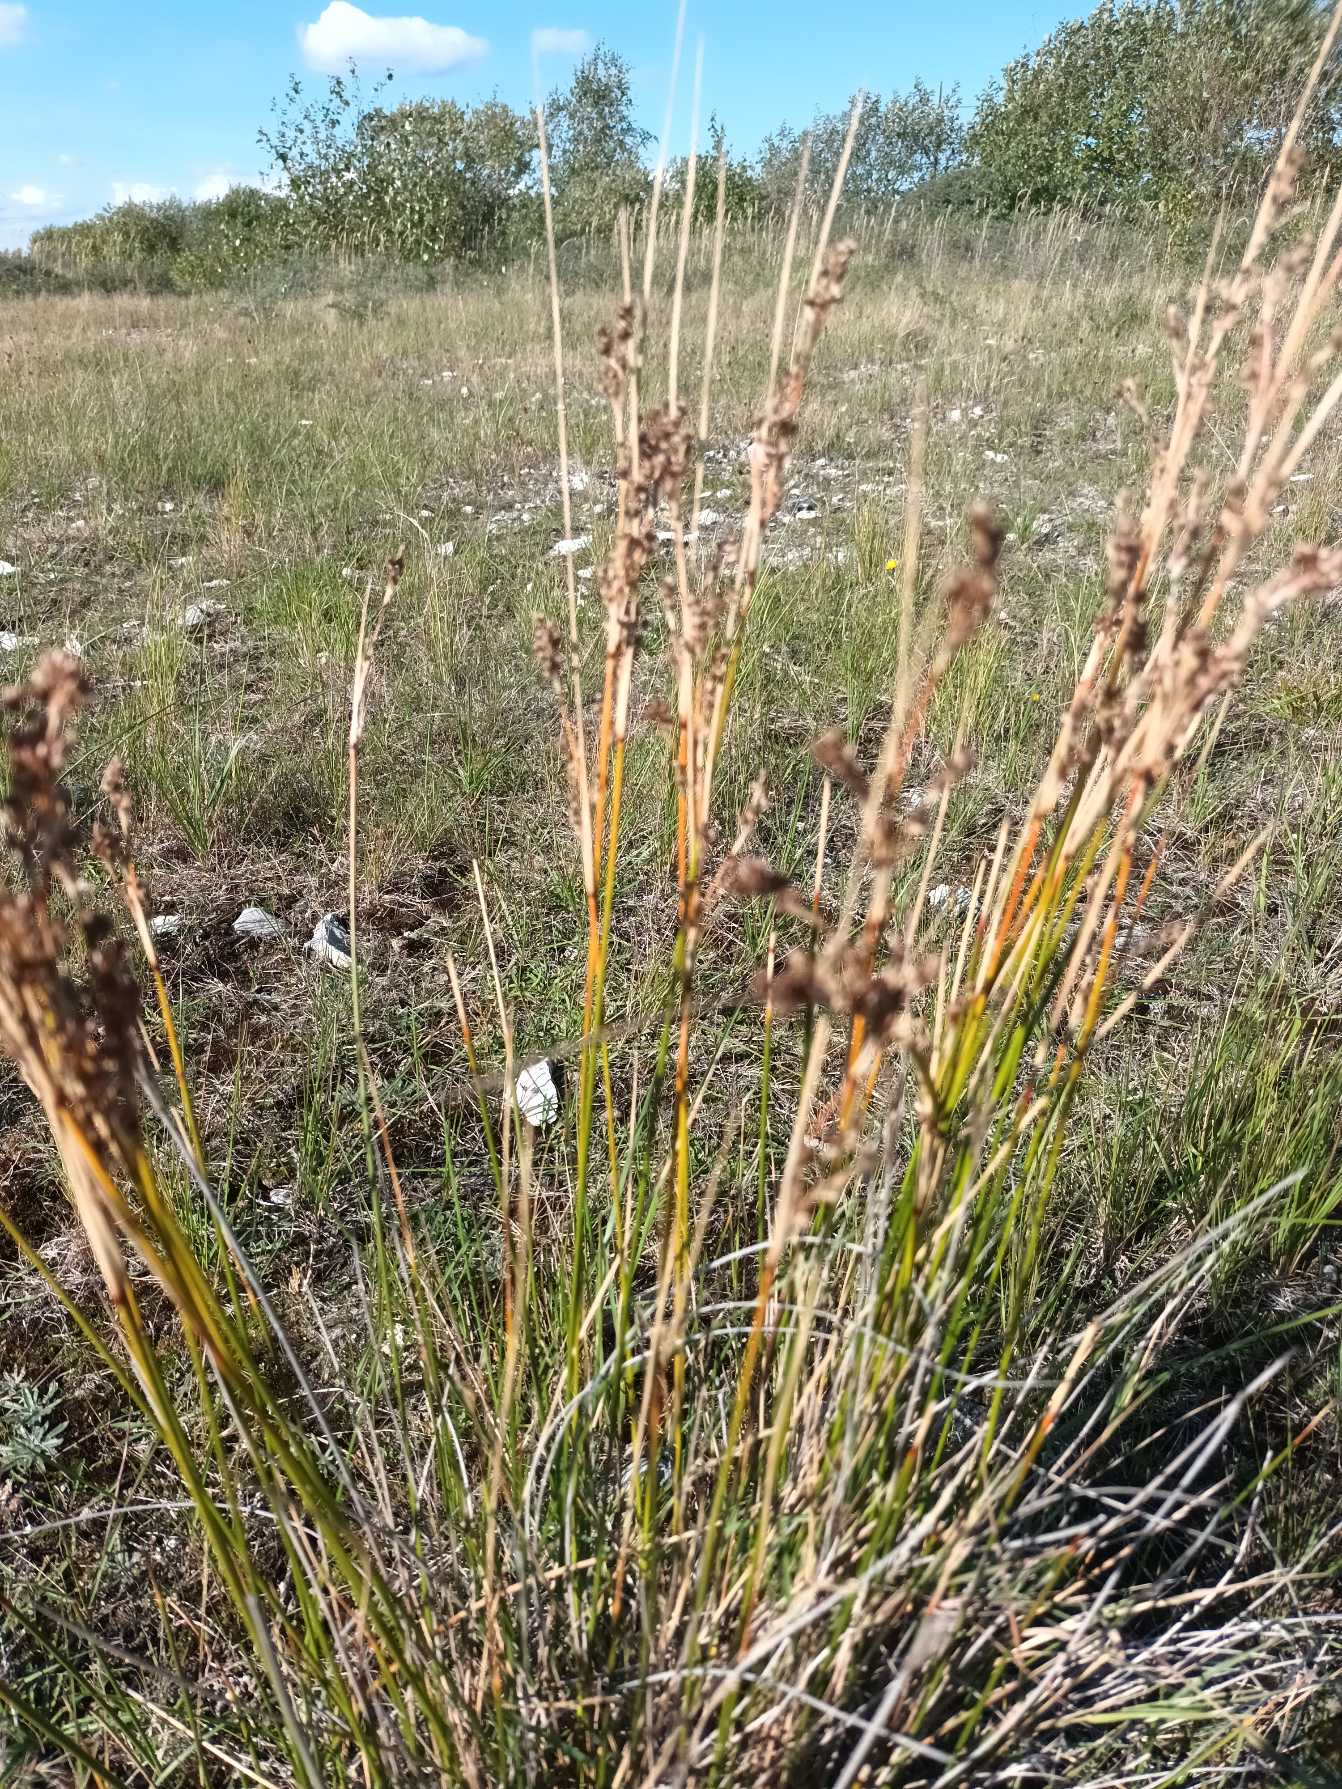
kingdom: Plantae
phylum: Tracheophyta
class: Liliopsida
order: Poales
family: Juncaceae
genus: Juncus
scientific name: Juncus maritimus
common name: Strand-siv
